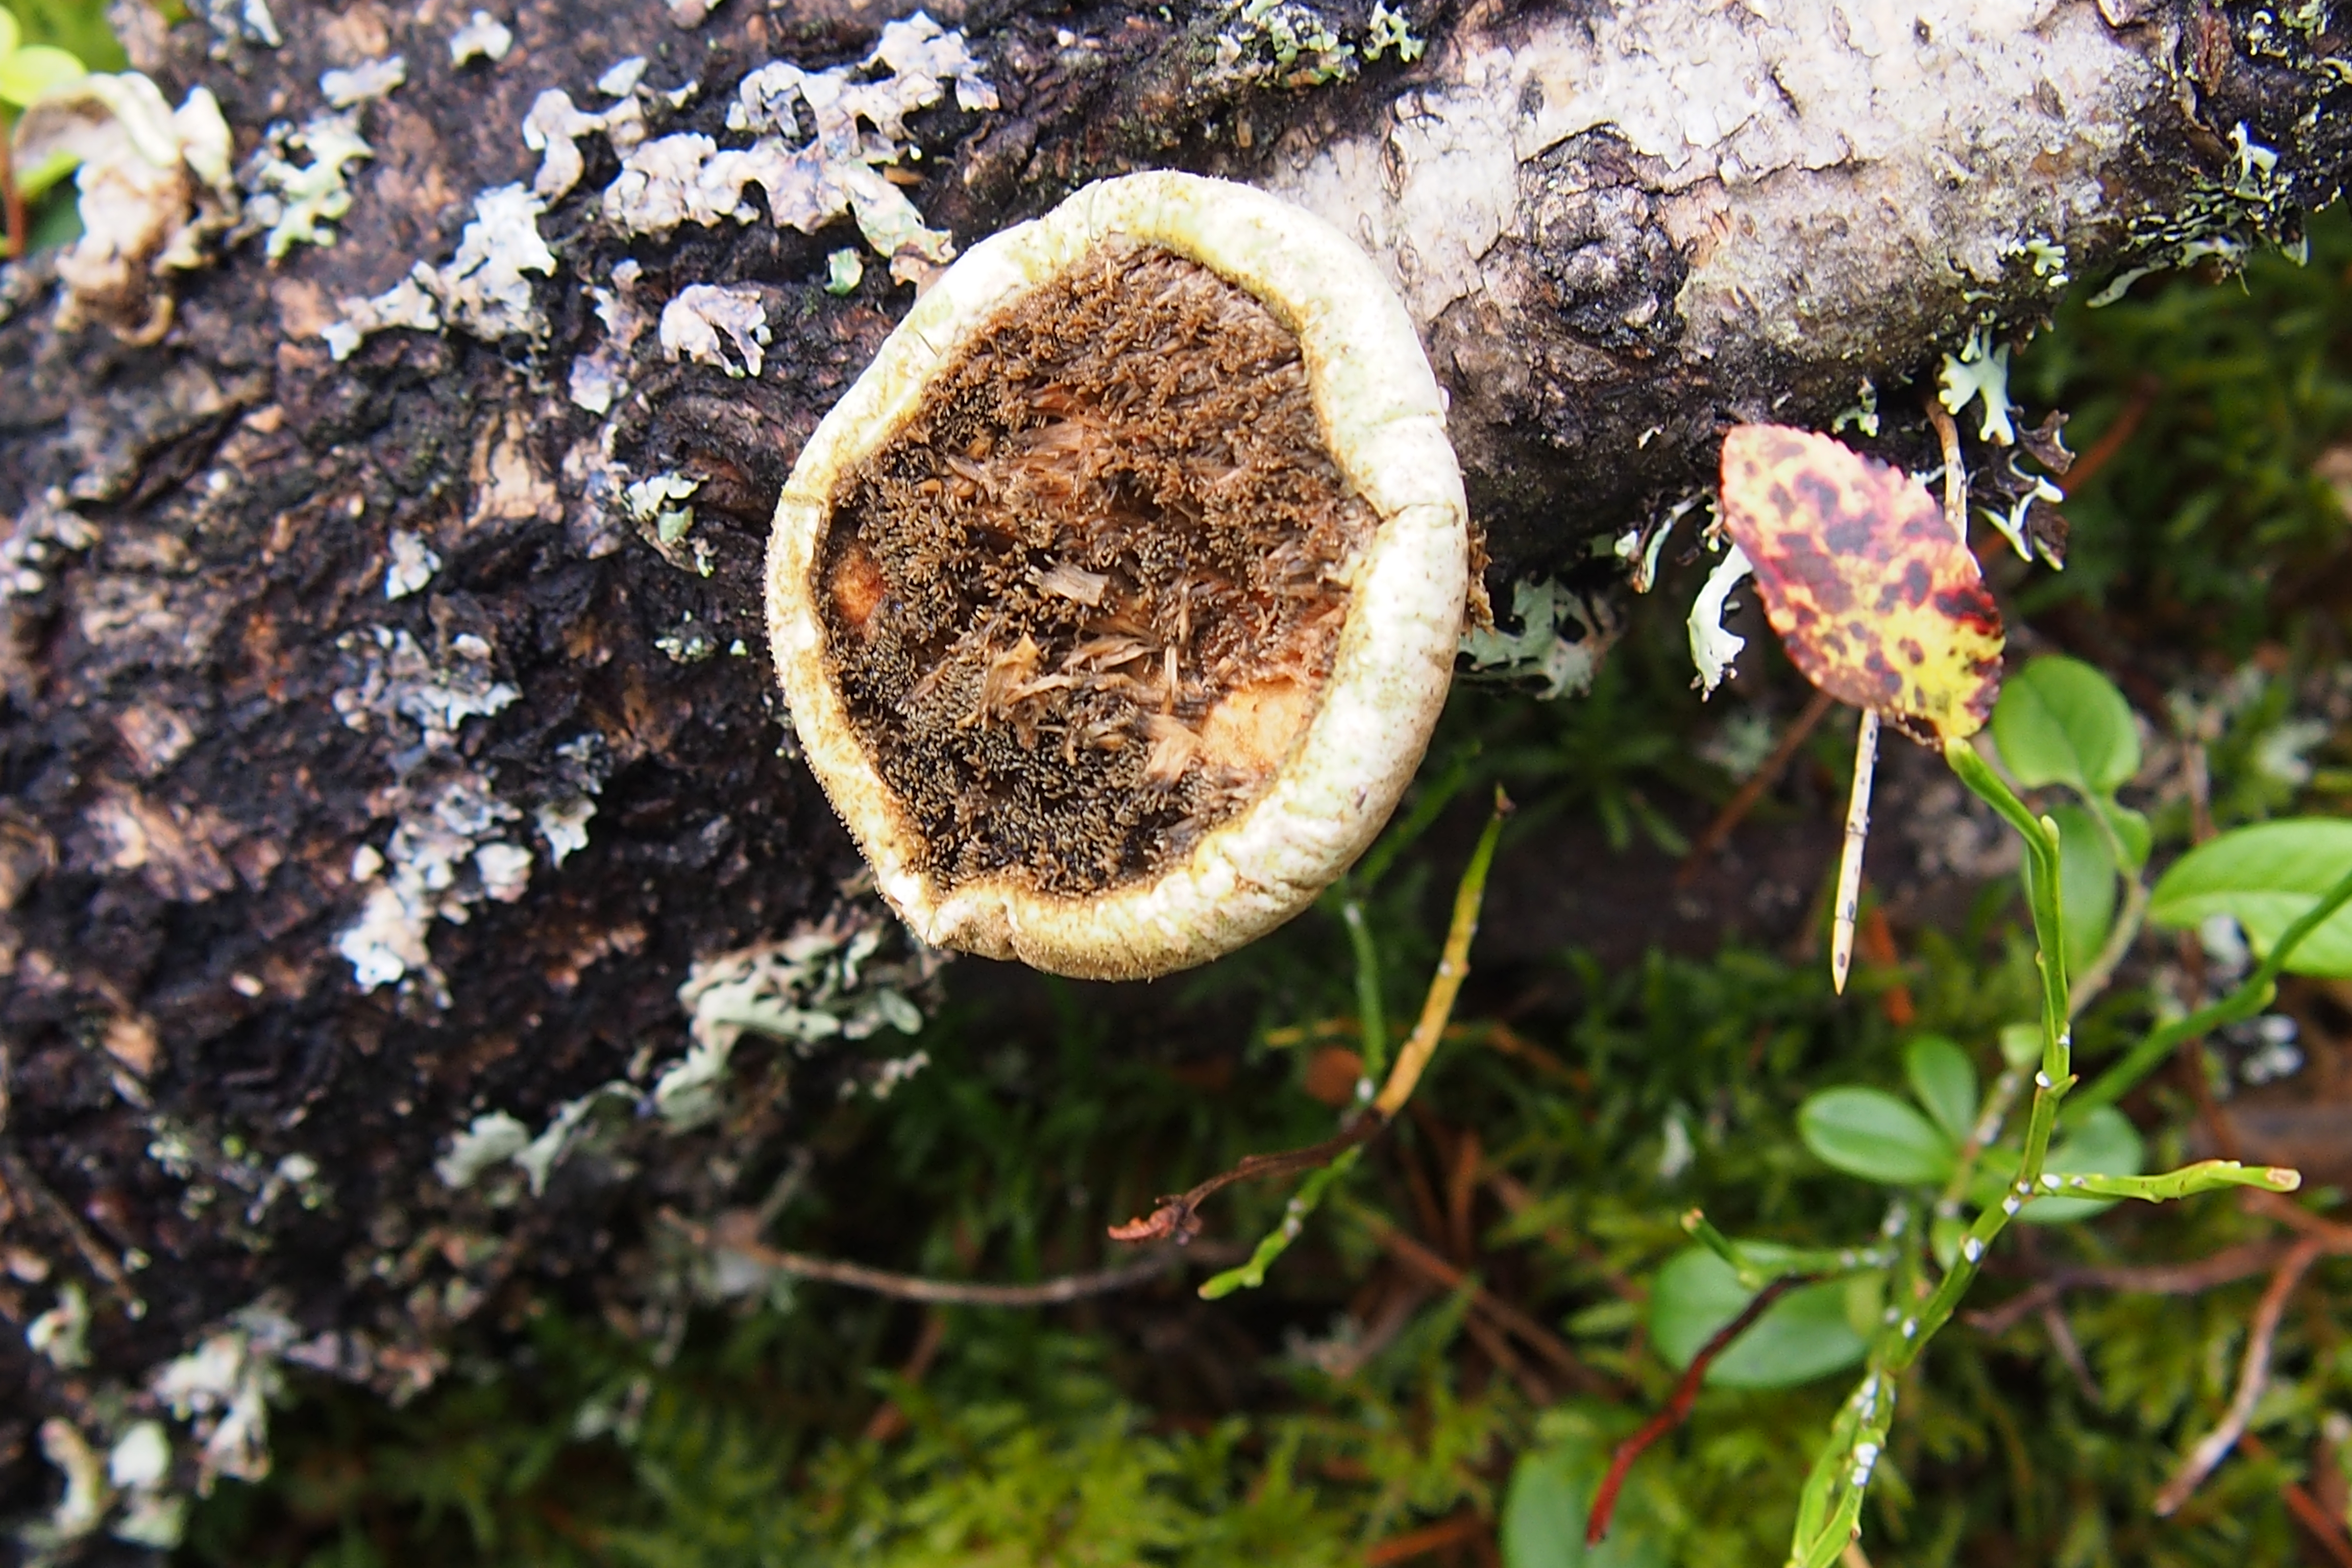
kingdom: Fungi
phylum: Basidiomycota
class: Agaricomycetes
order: Polyporales
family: Fomitopsidaceae
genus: Fomitopsis
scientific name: Fomitopsis betulina
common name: Birch polypore
